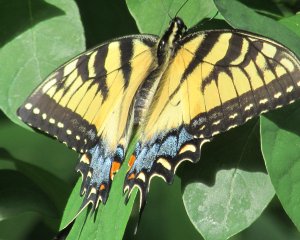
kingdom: Animalia
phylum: Arthropoda
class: Insecta
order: Lepidoptera
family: Papilionidae
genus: Pterourus
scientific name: Pterourus glaucus
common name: Eastern Tiger Swallowtail
